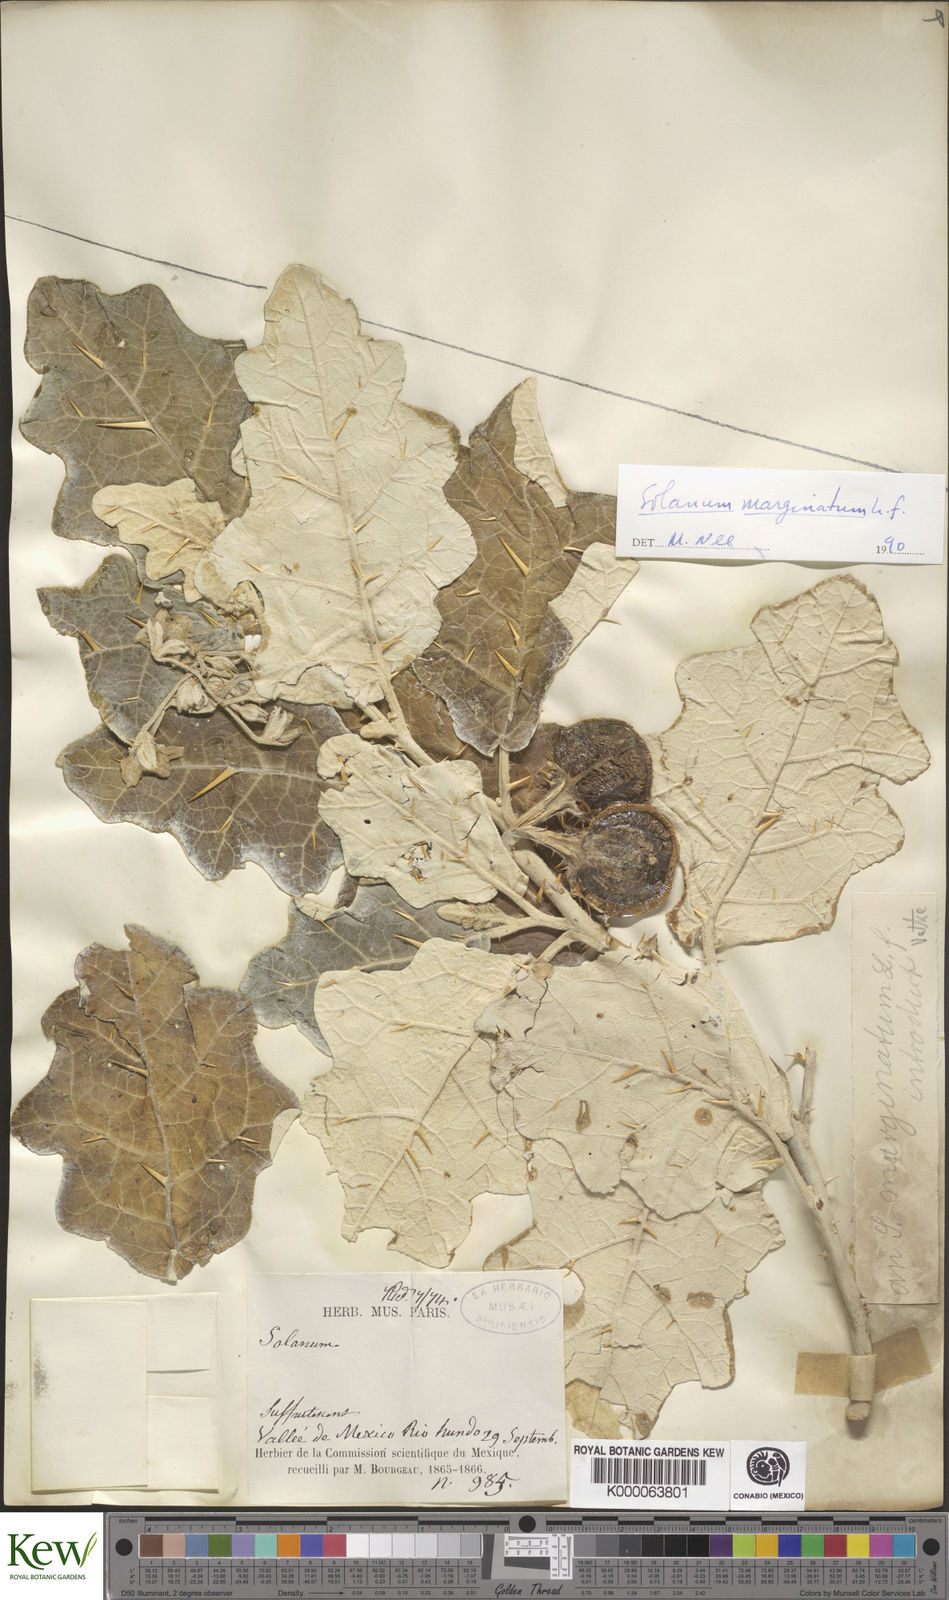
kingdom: Plantae
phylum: Tracheophyta
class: Magnoliopsida
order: Solanales
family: Solanaceae
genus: Solanum
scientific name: Solanum marginatum
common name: Purple african nightshade
